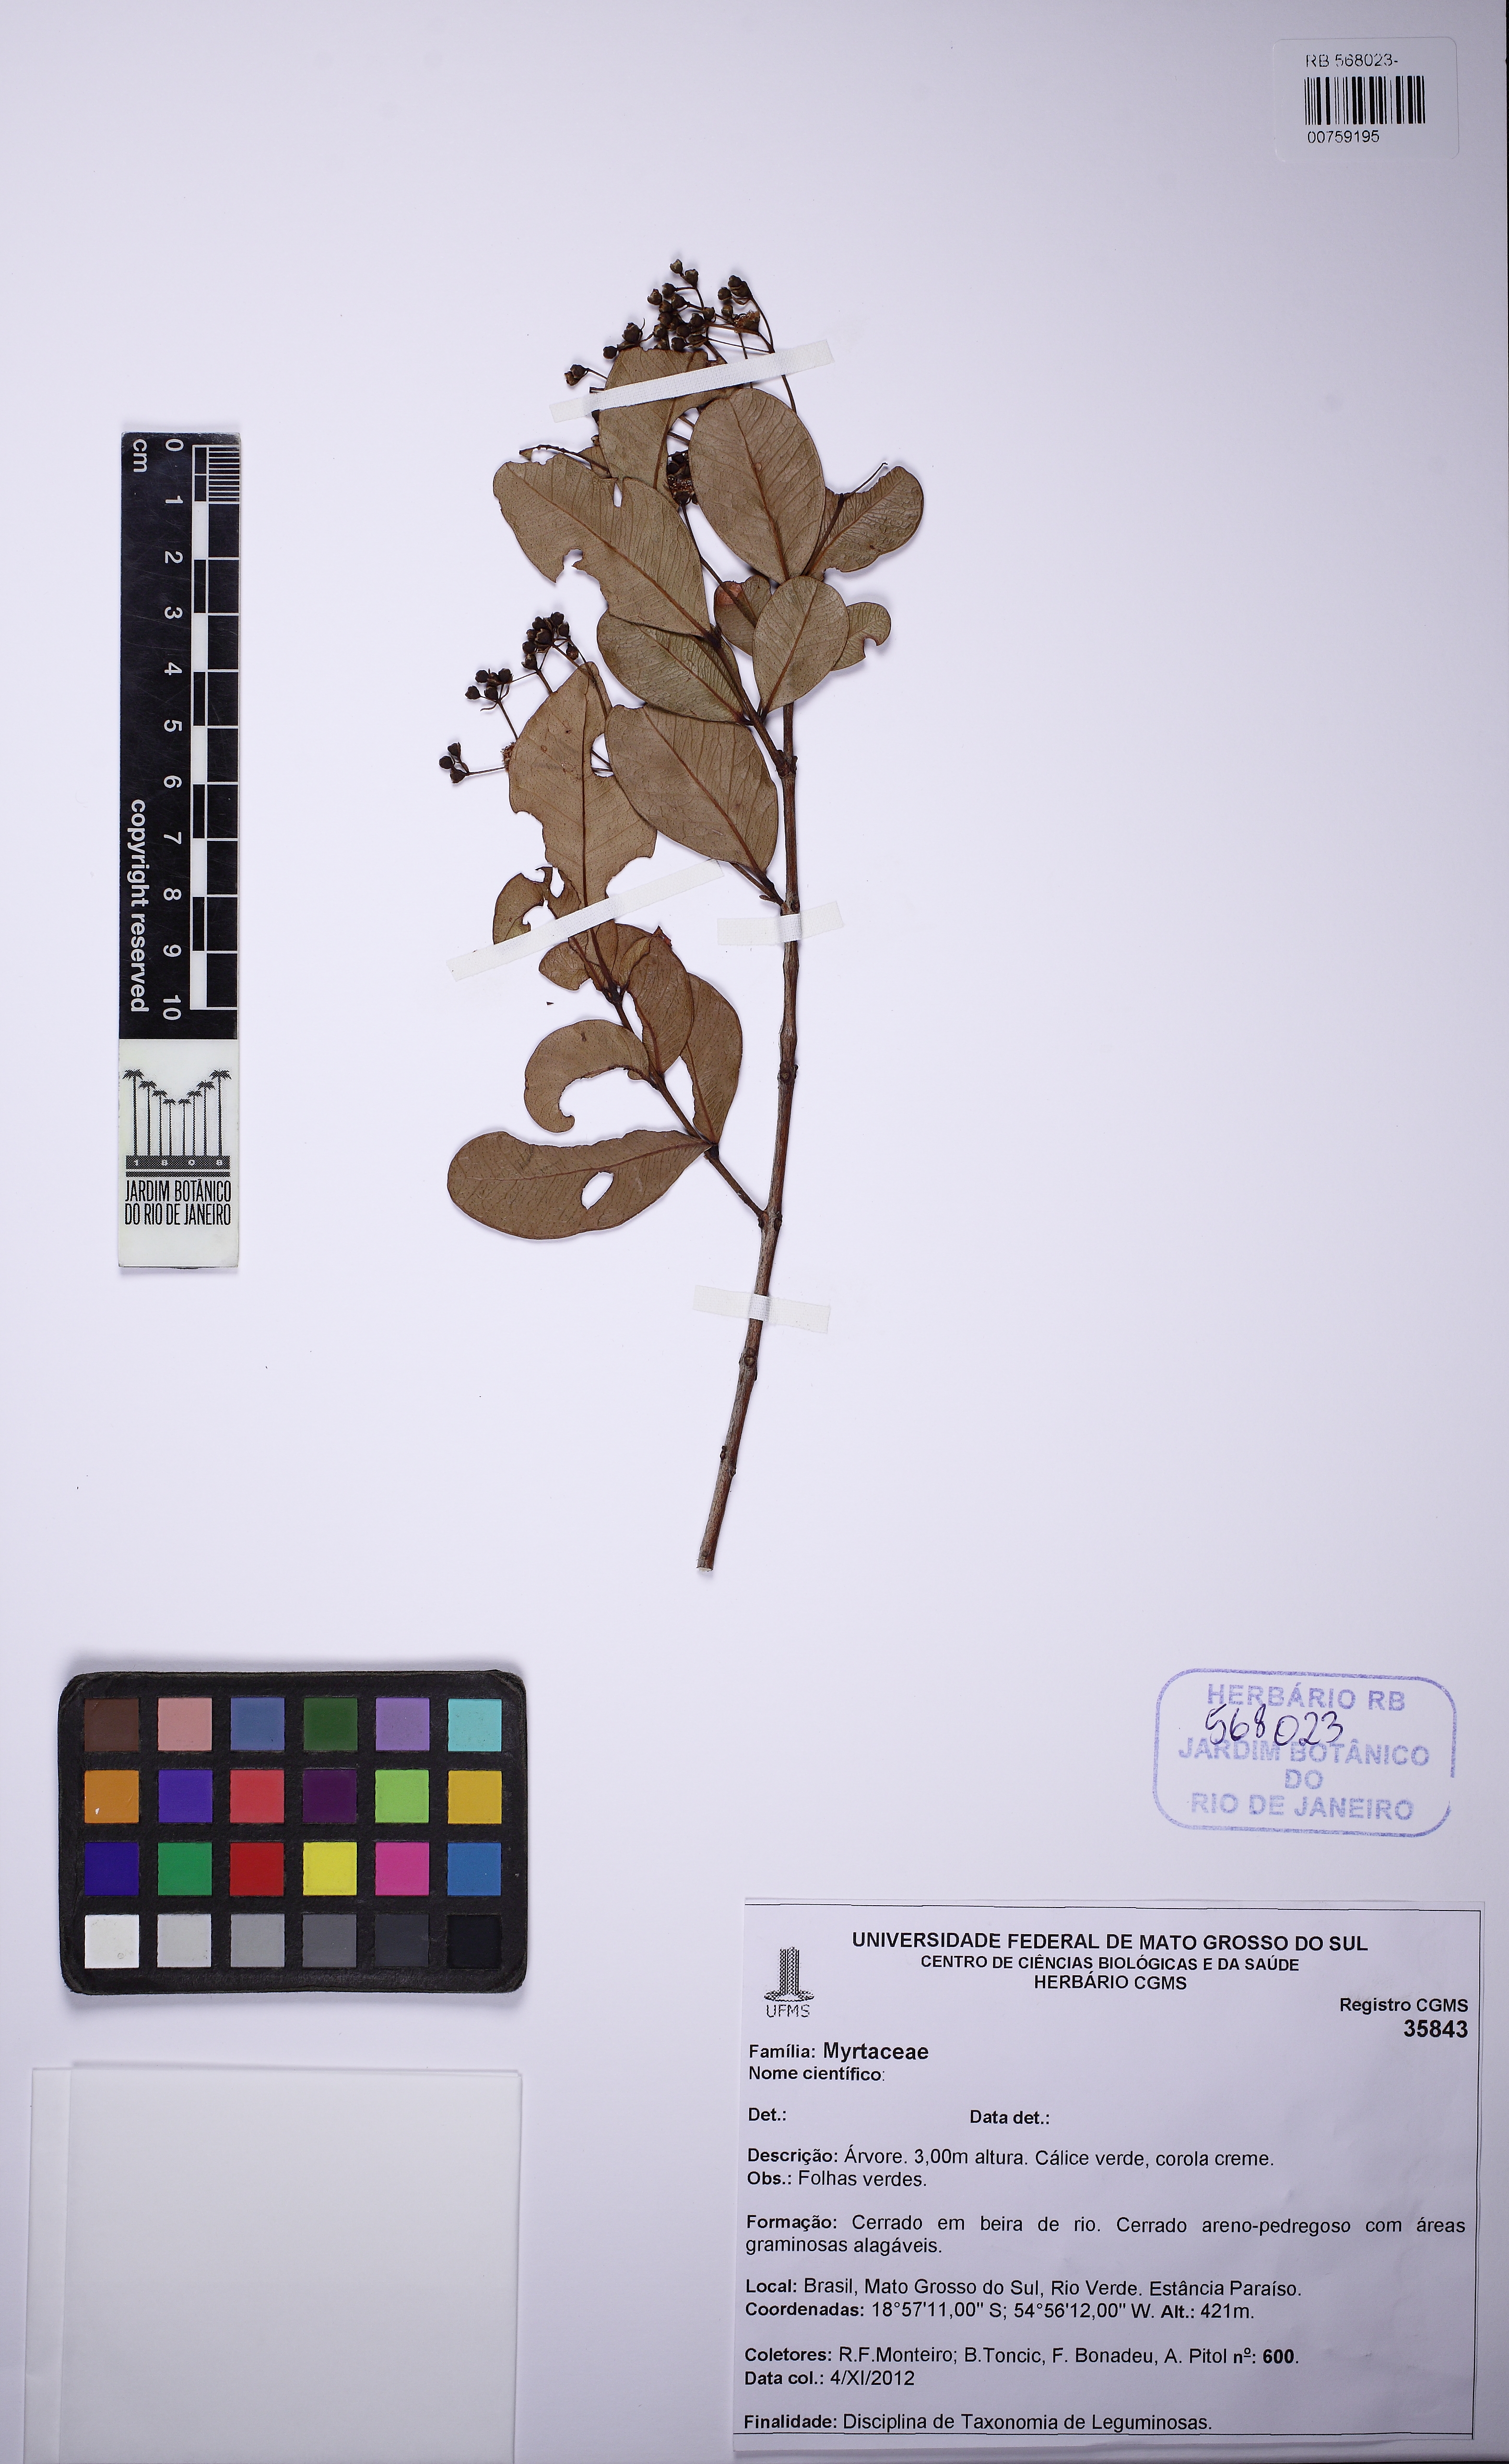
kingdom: Plantae
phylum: Tracheophyta
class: Magnoliopsida
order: Myrtales
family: Myrtaceae
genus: Myrcia
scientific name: Myrcia guianensis
